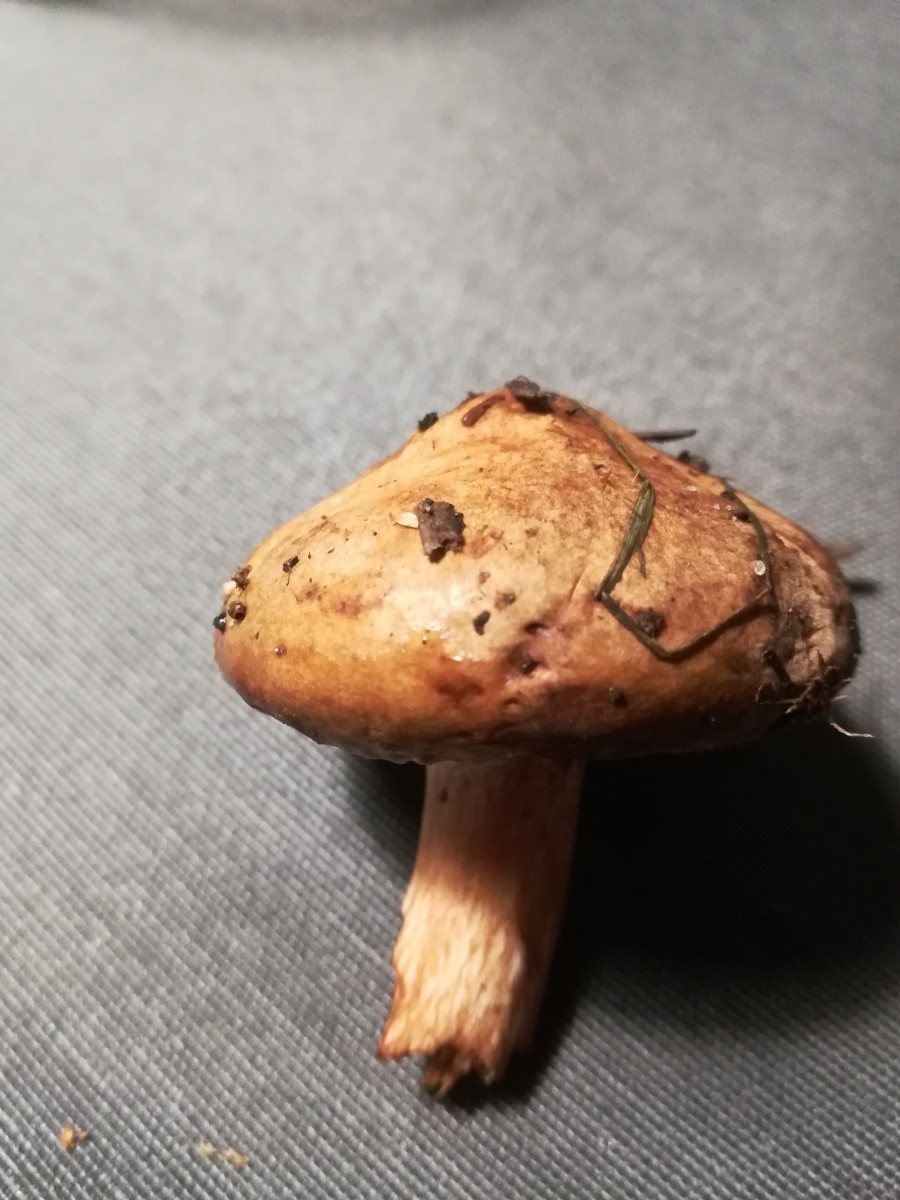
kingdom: Fungi
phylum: Basidiomycota
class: Agaricomycetes
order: Boletales
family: Paxillaceae
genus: Paxillus
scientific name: Paxillus involutus
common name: almindelig netbladhat
